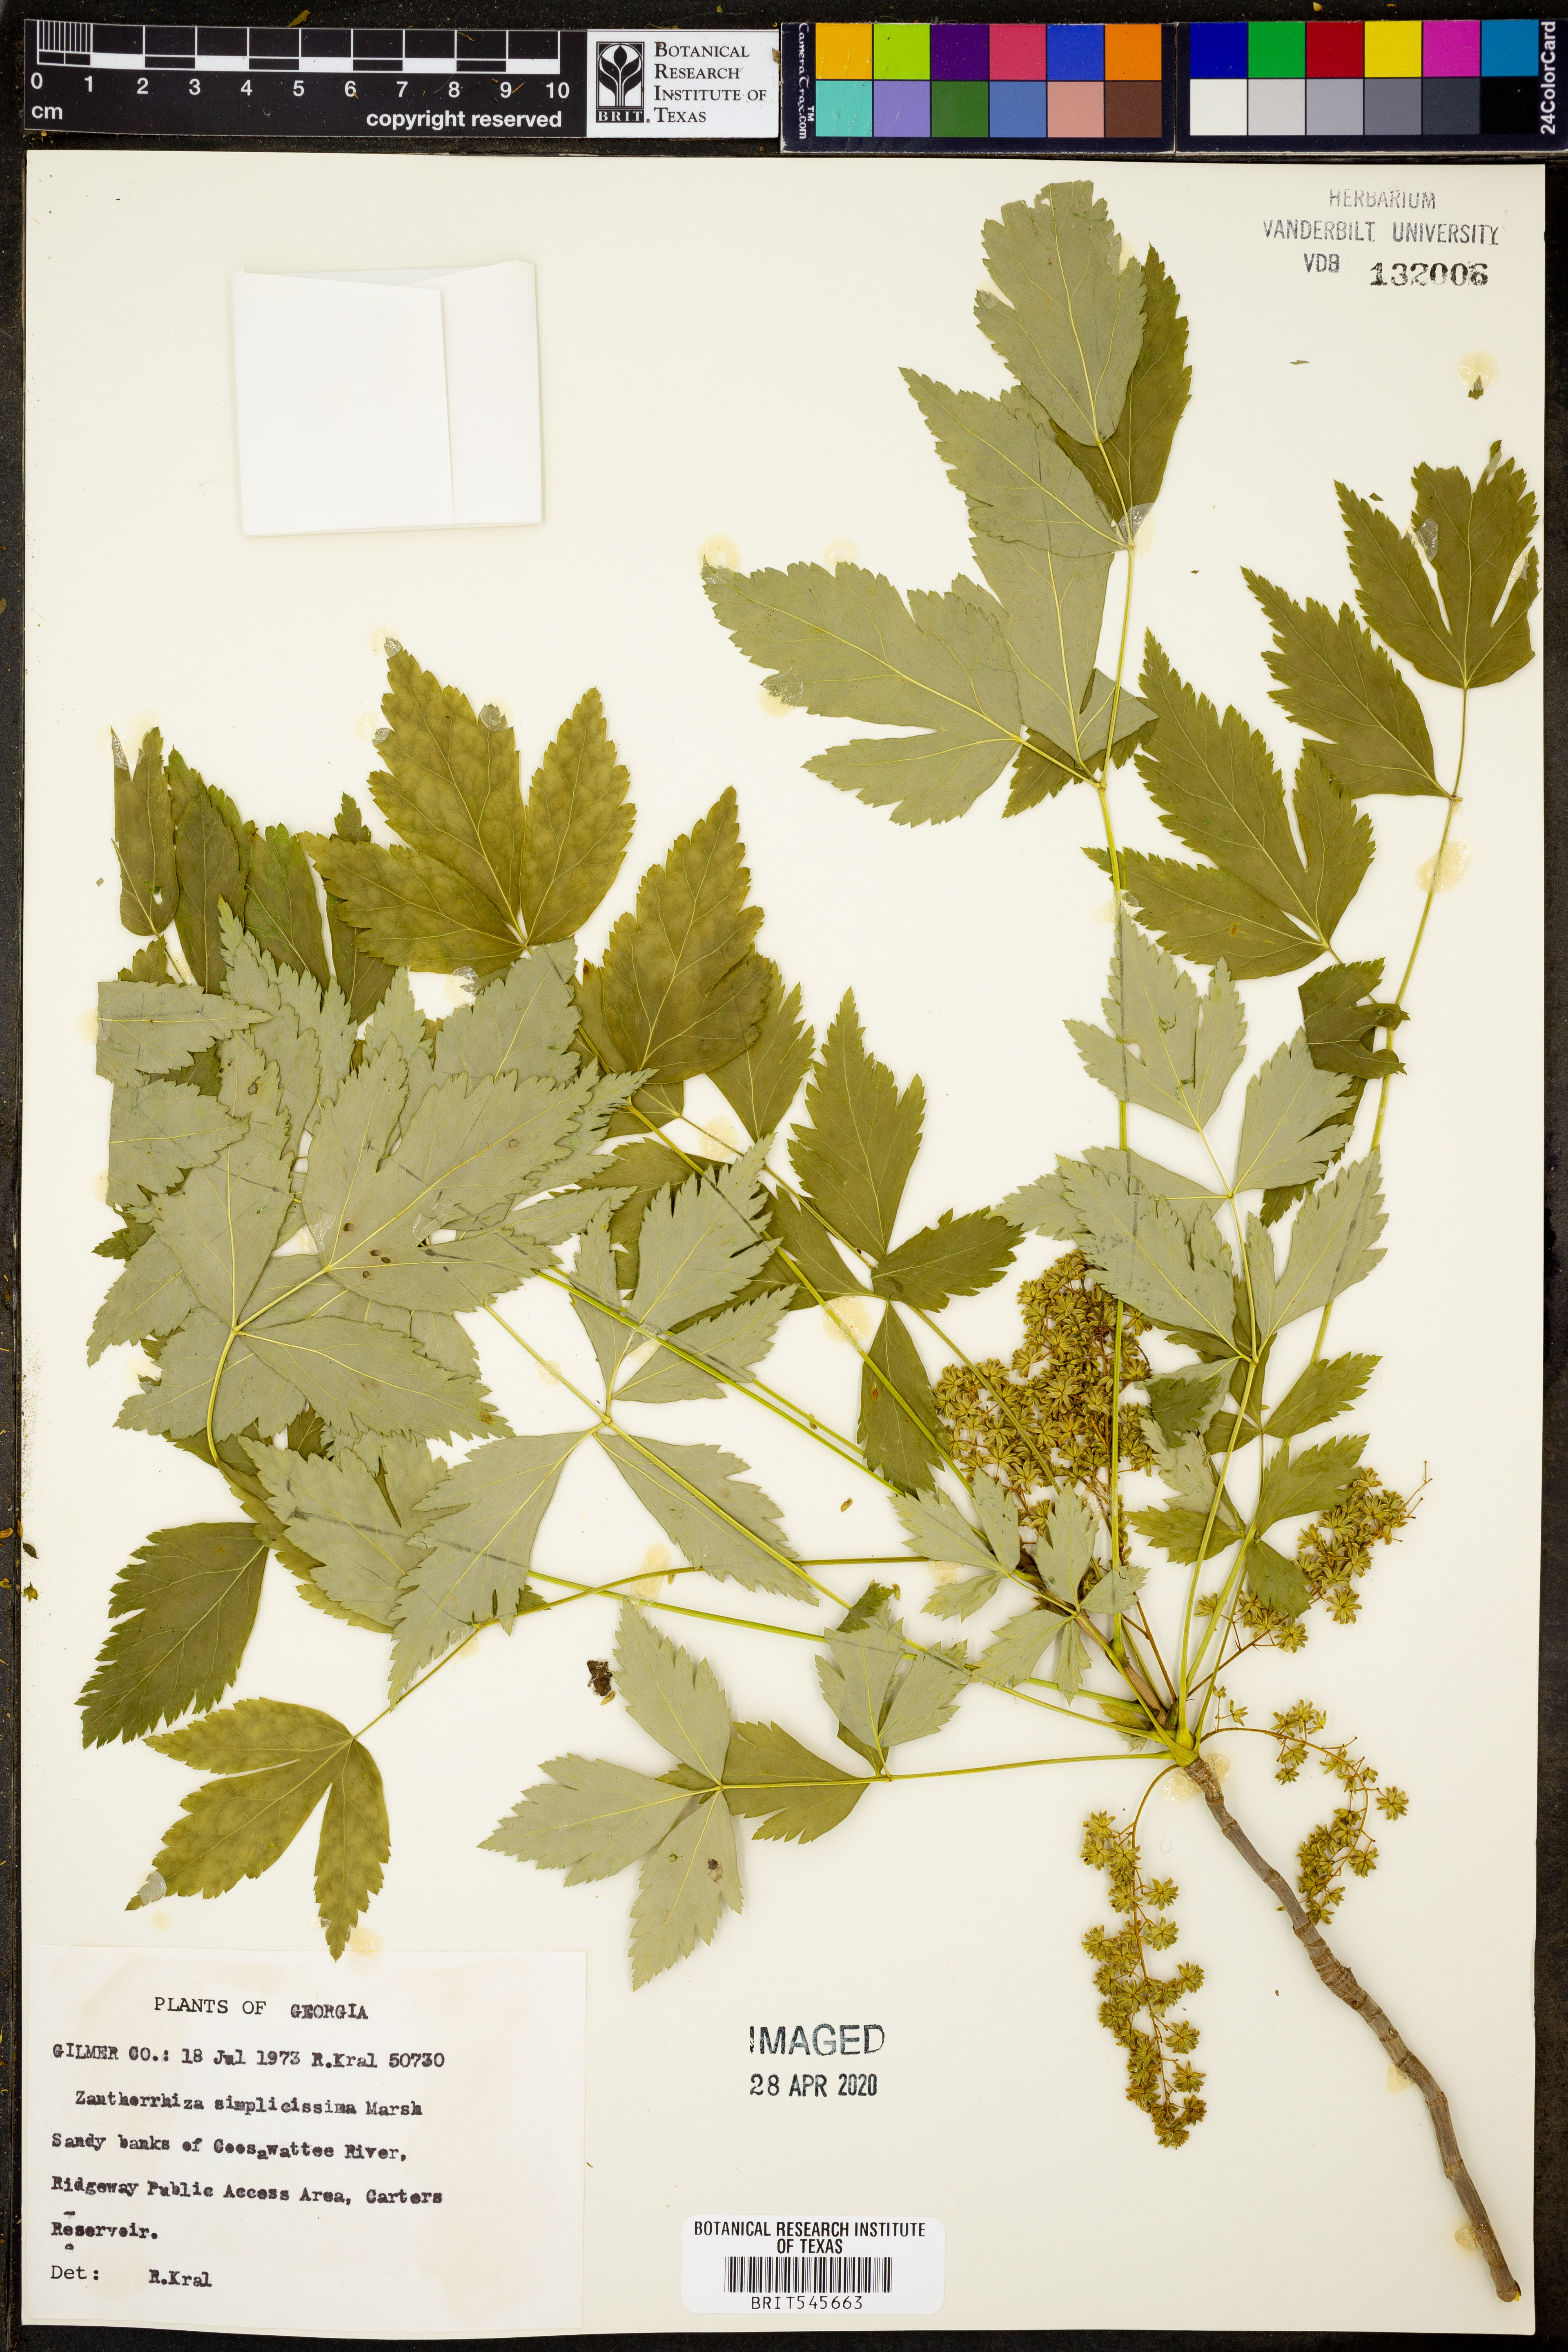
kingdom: Plantae
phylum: Tracheophyta
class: Magnoliopsida
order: Ranunculales
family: Ranunculaceae
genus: Xanthorhiza
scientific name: Xanthorhiza simplicissima
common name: Yellowroot
